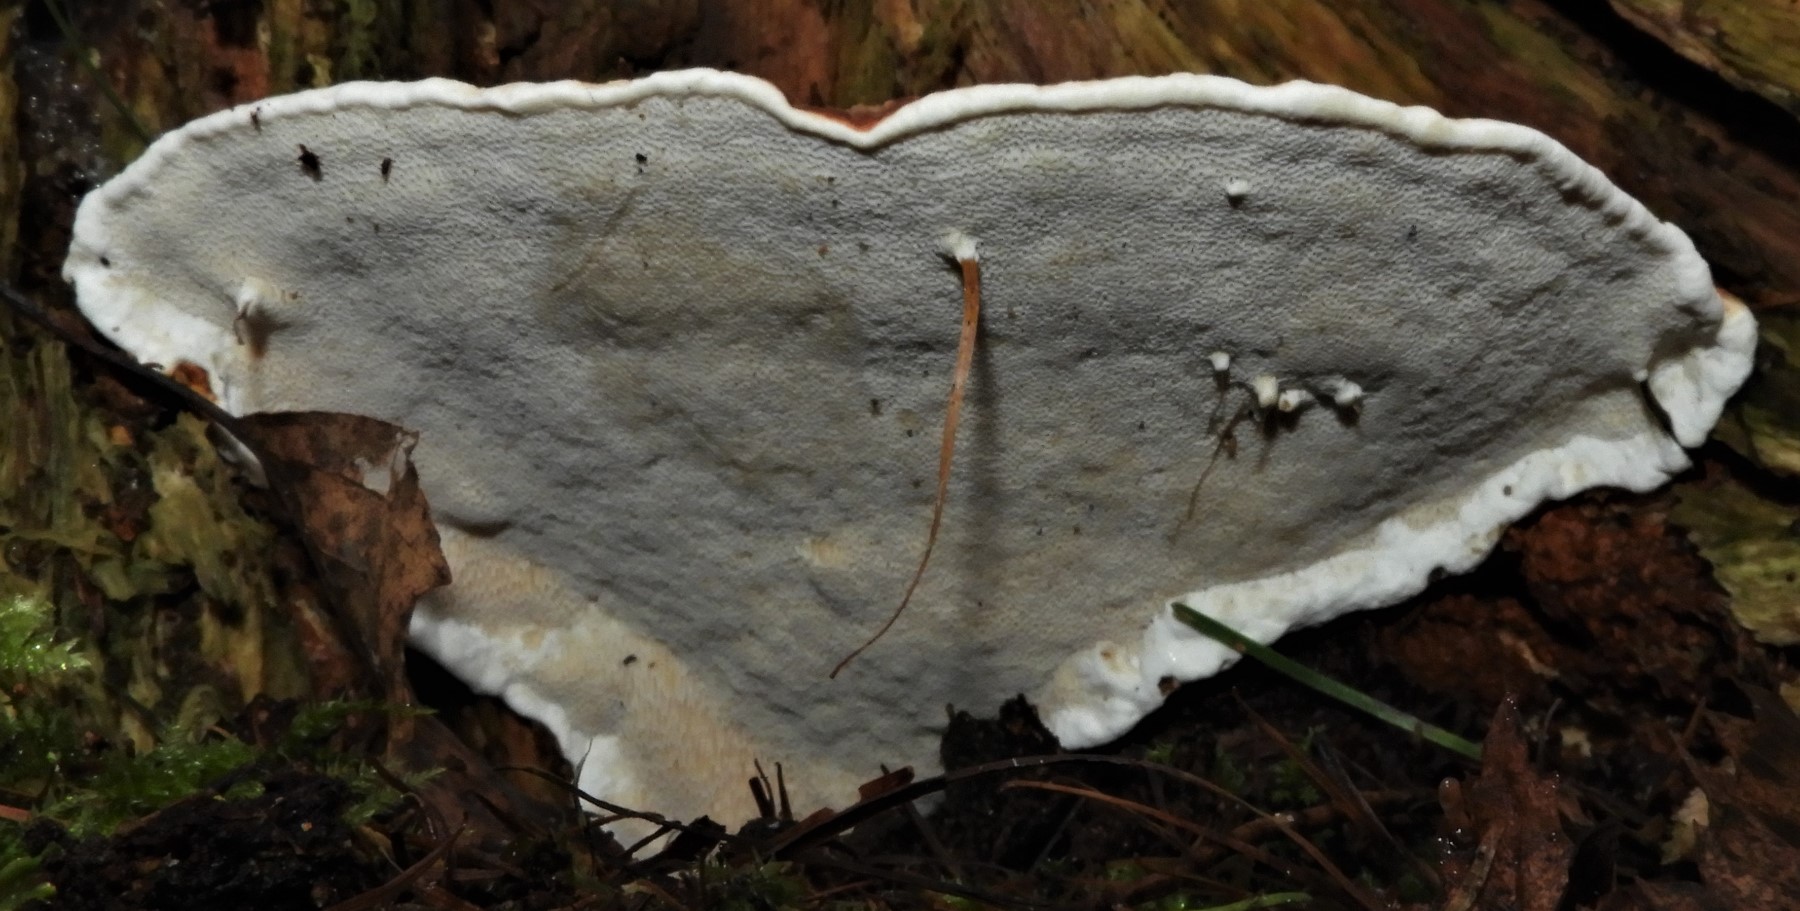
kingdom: Fungi
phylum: Basidiomycota
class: Agaricomycetes
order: Polyporales
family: Fomitopsidaceae
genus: Fomitopsis
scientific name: Fomitopsis pinicola
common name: randbæltet hovporesvamp
